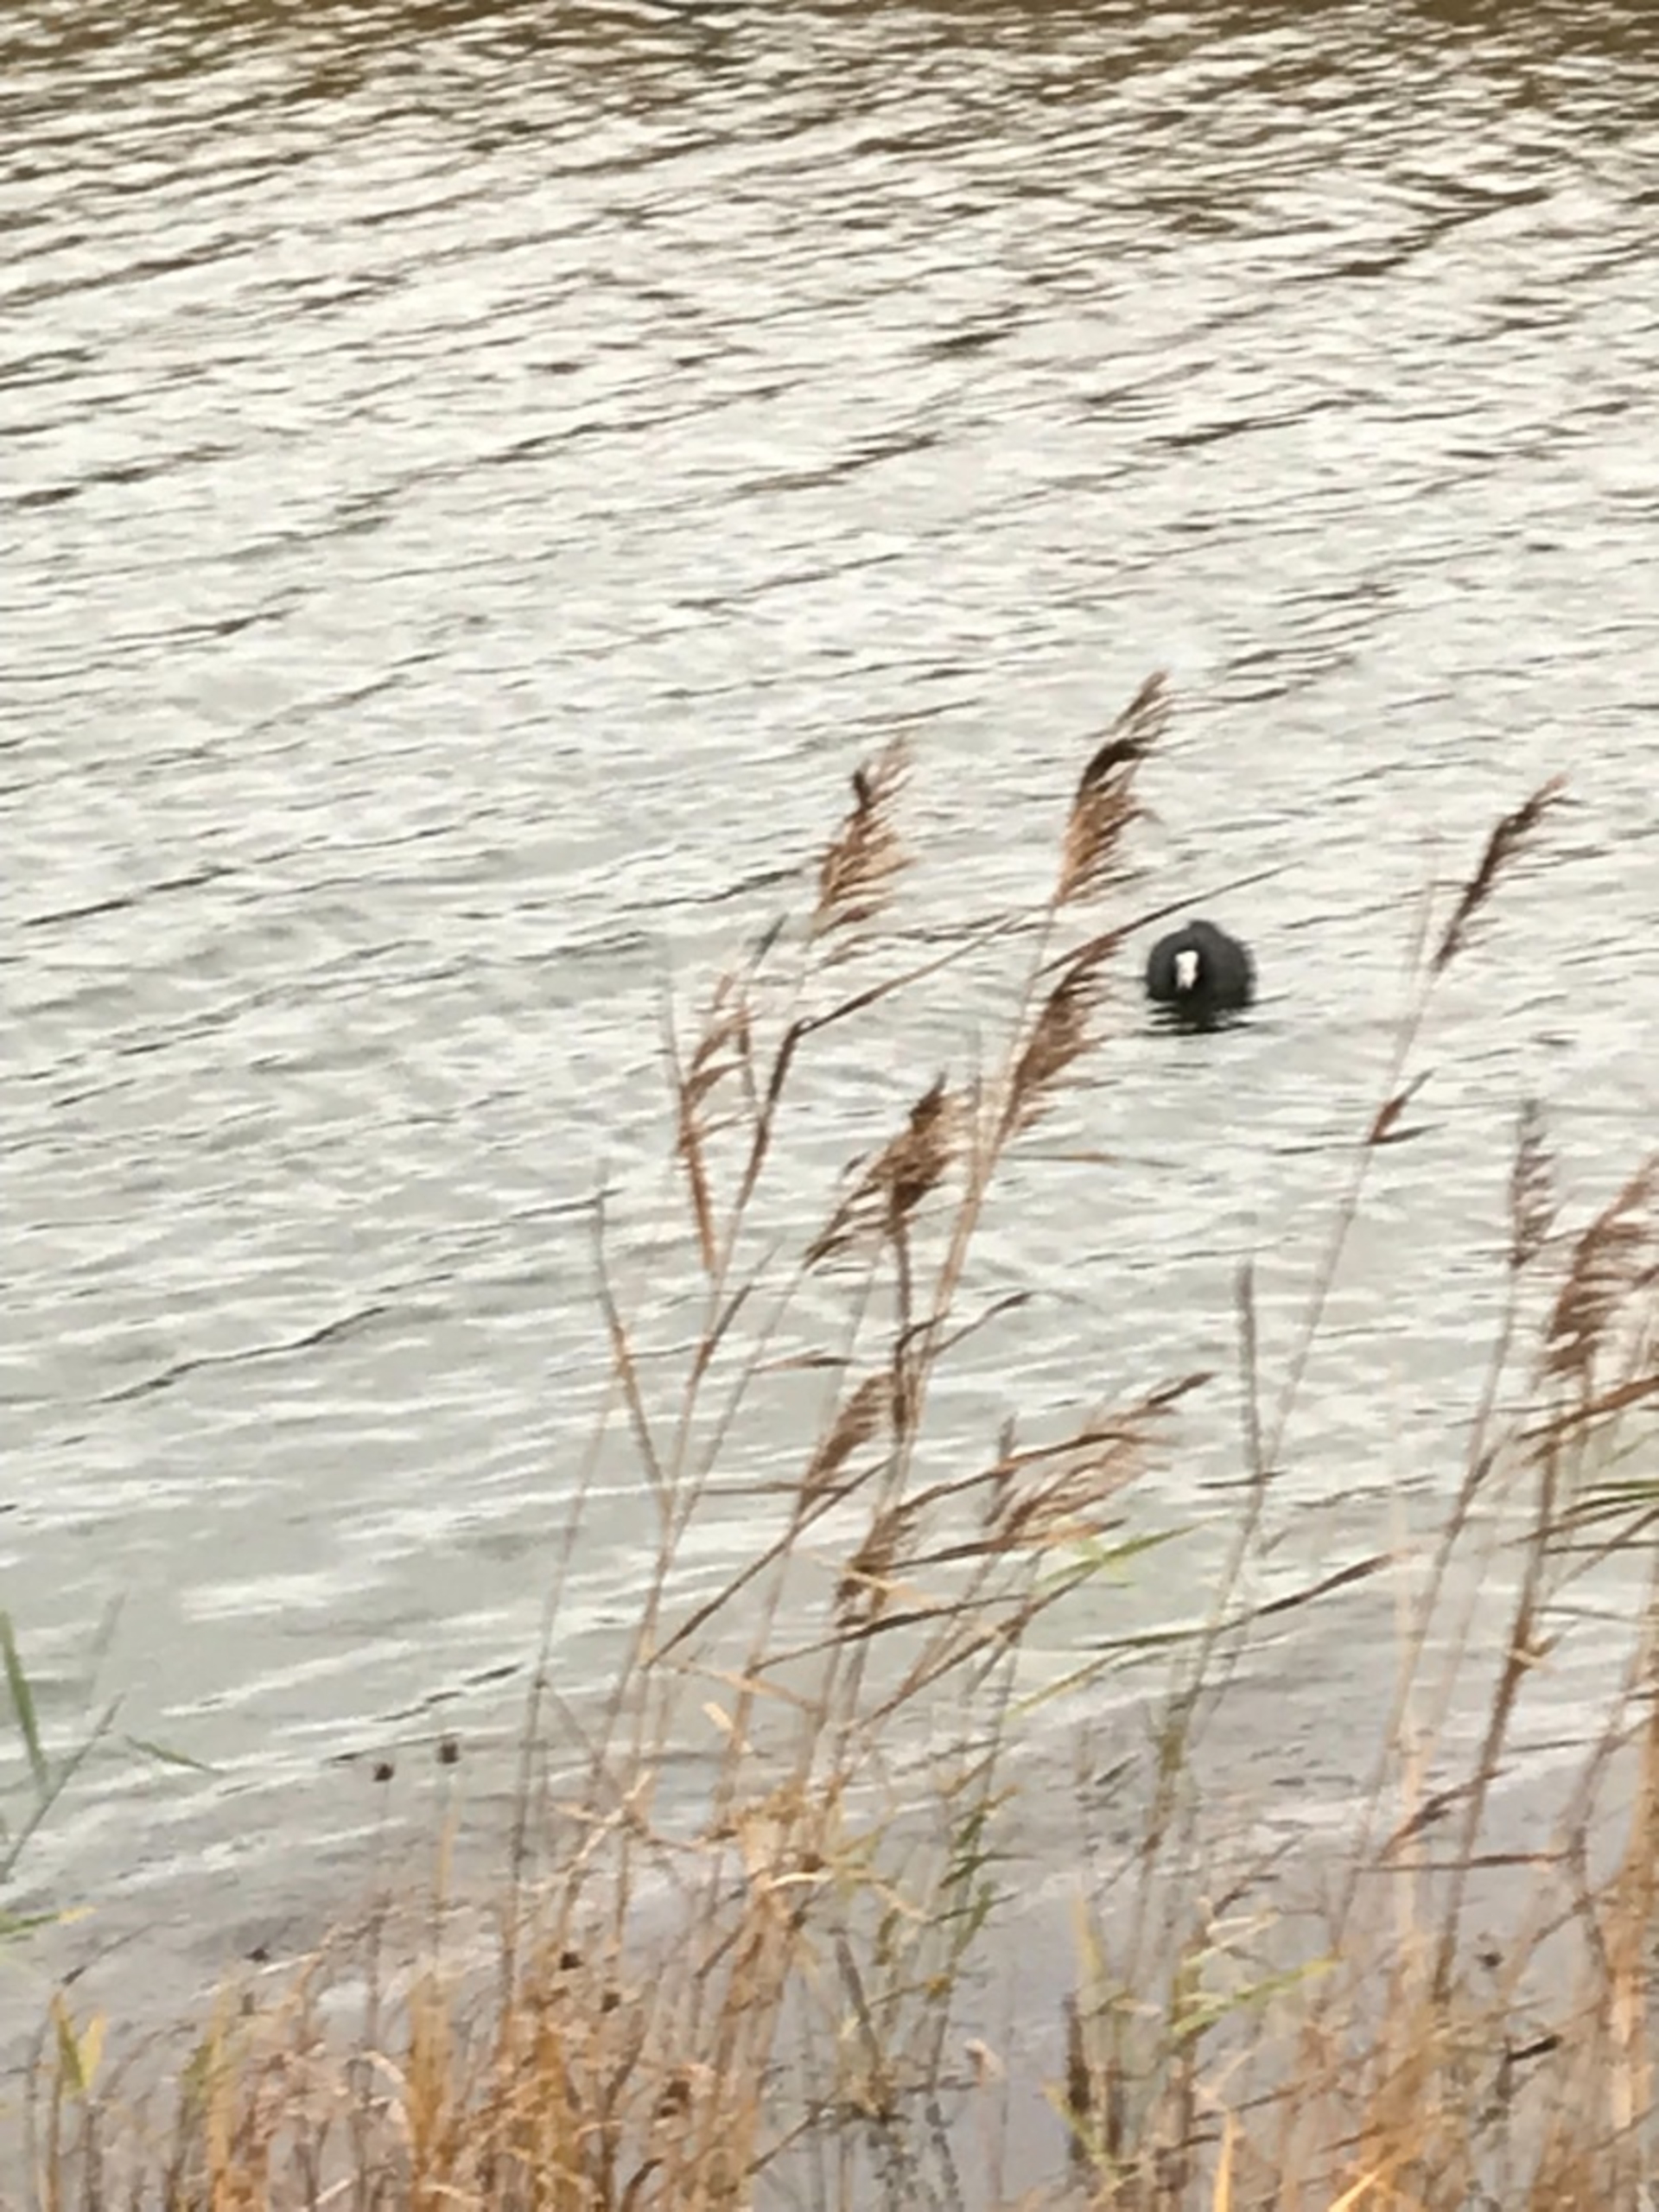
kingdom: Animalia
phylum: Chordata
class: Aves
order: Gruiformes
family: Rallidae
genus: Fulica
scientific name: Fulica atra
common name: Blishøne
